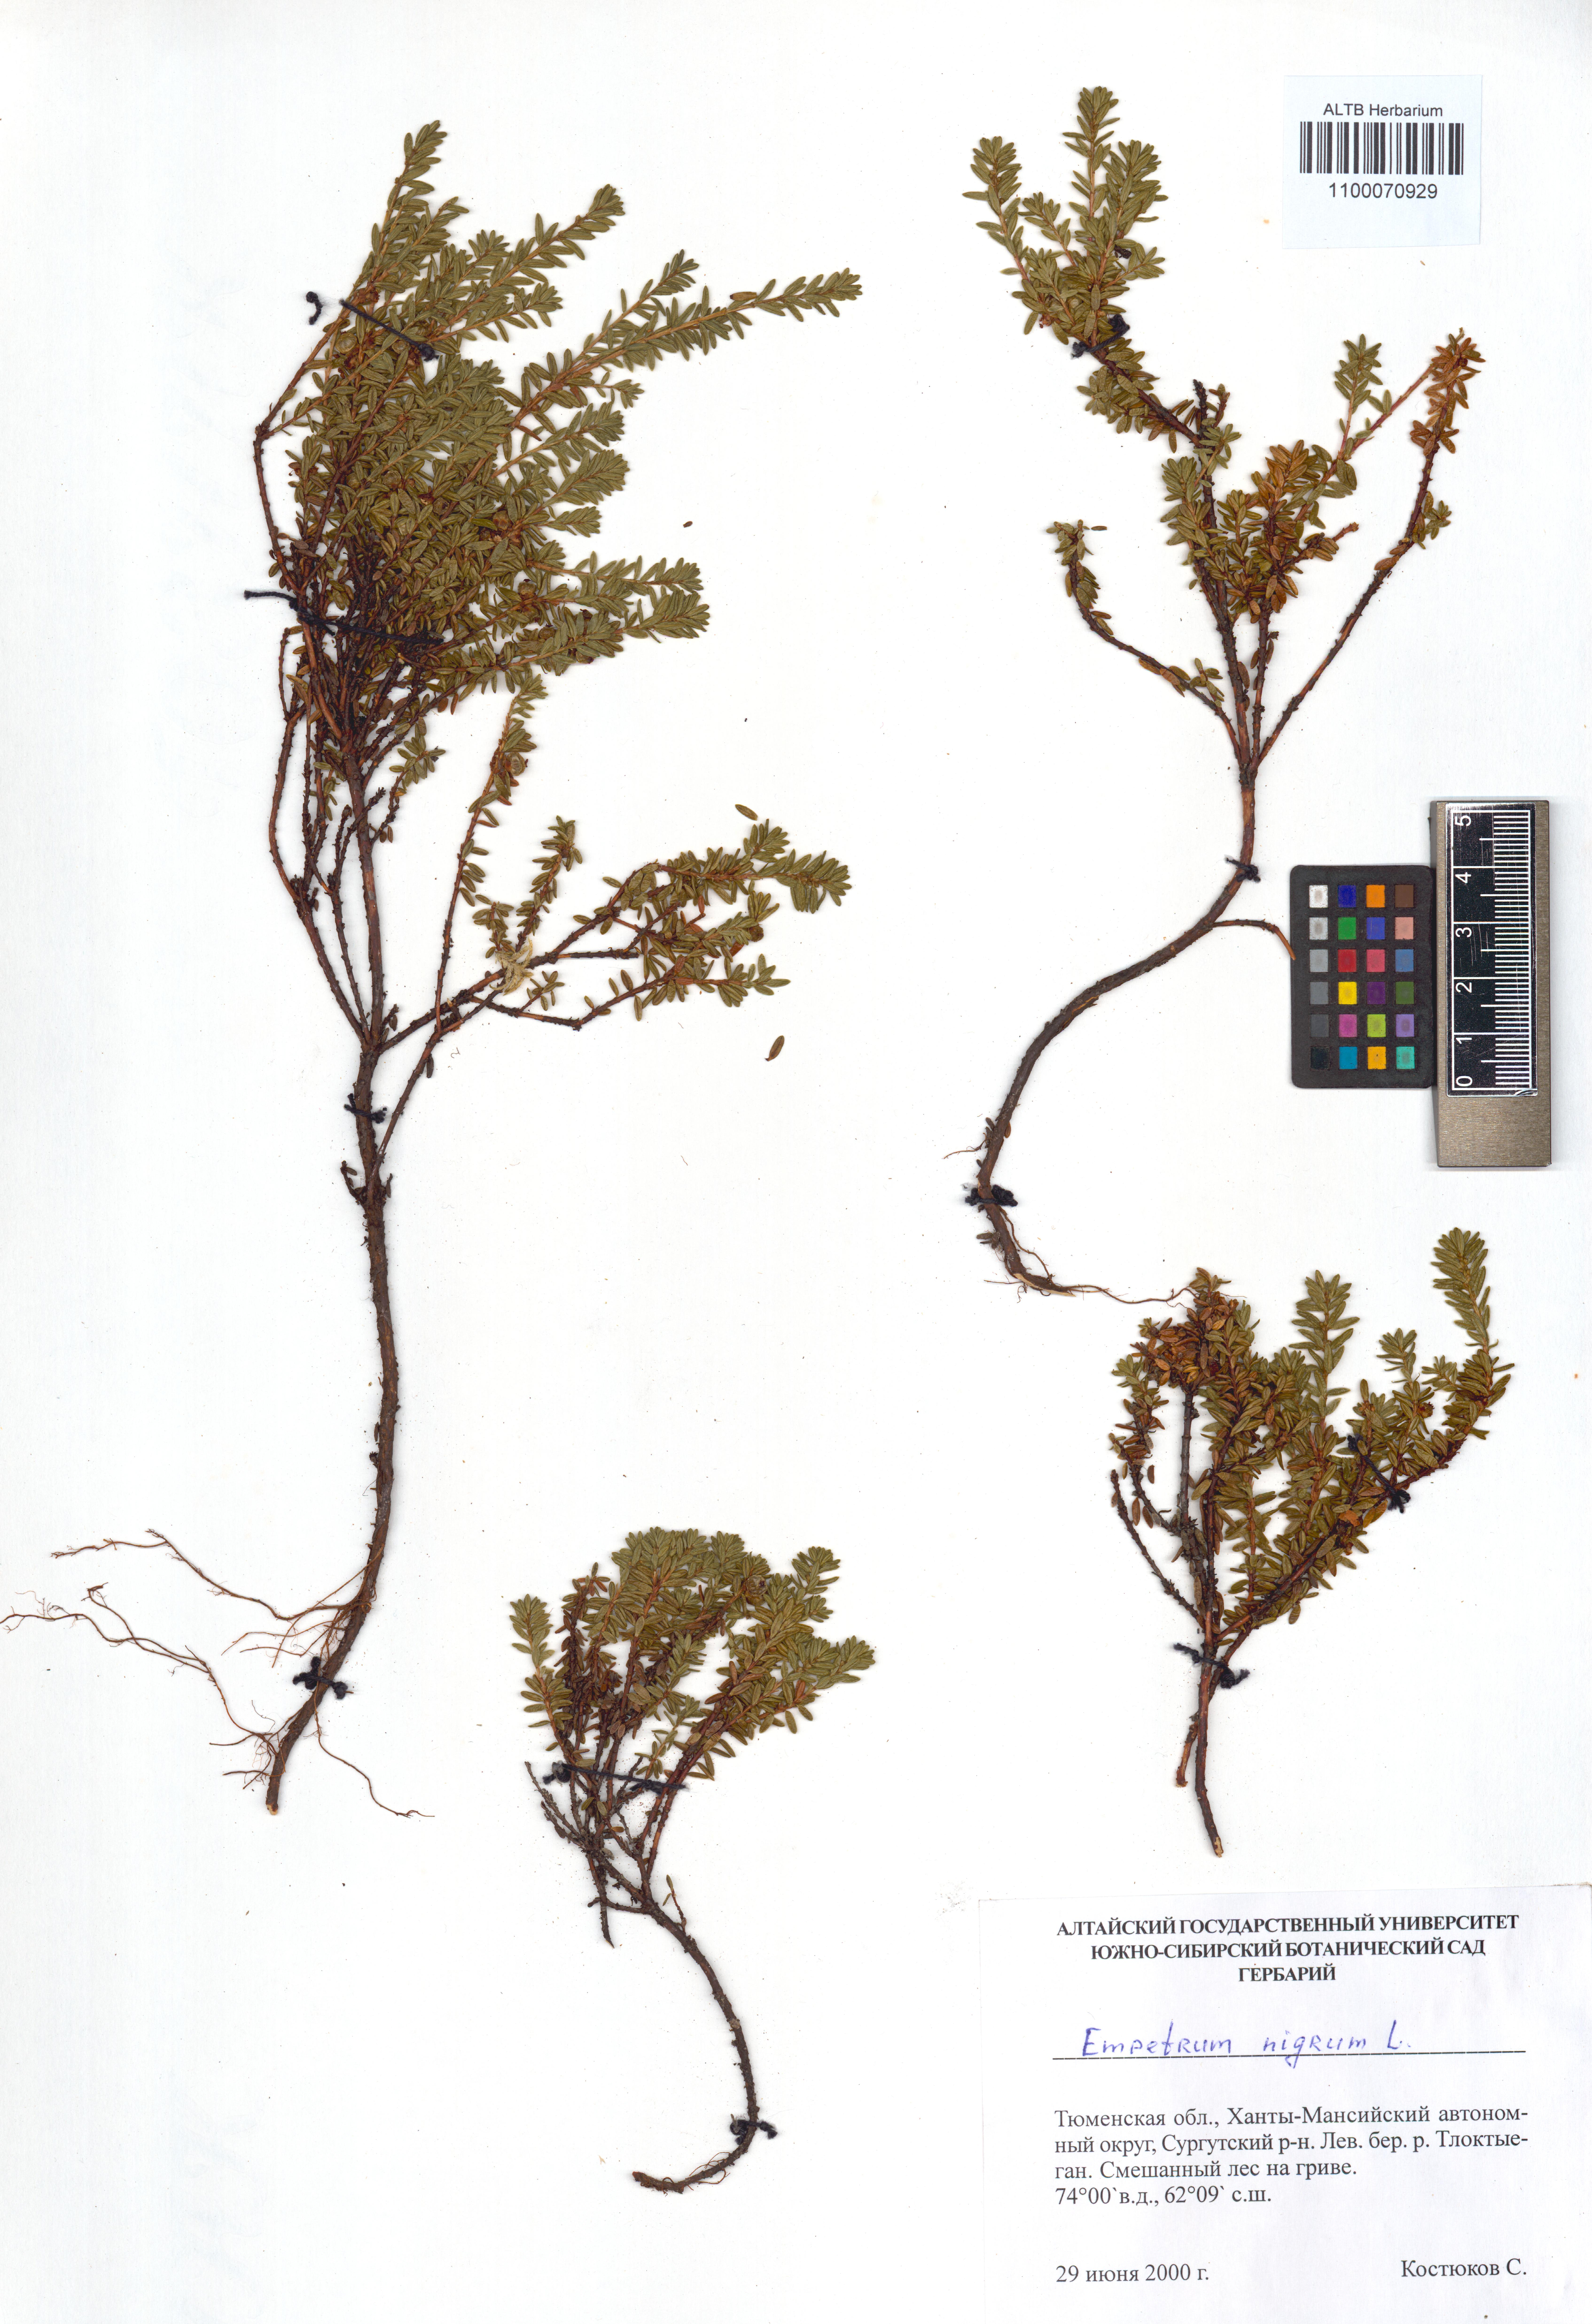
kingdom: Plantae
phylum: Tracheophyta
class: Magnoliopsida
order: Ericales
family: Ericaceae
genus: Empetrum
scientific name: Empetrum nigrum
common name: Black crowberry
